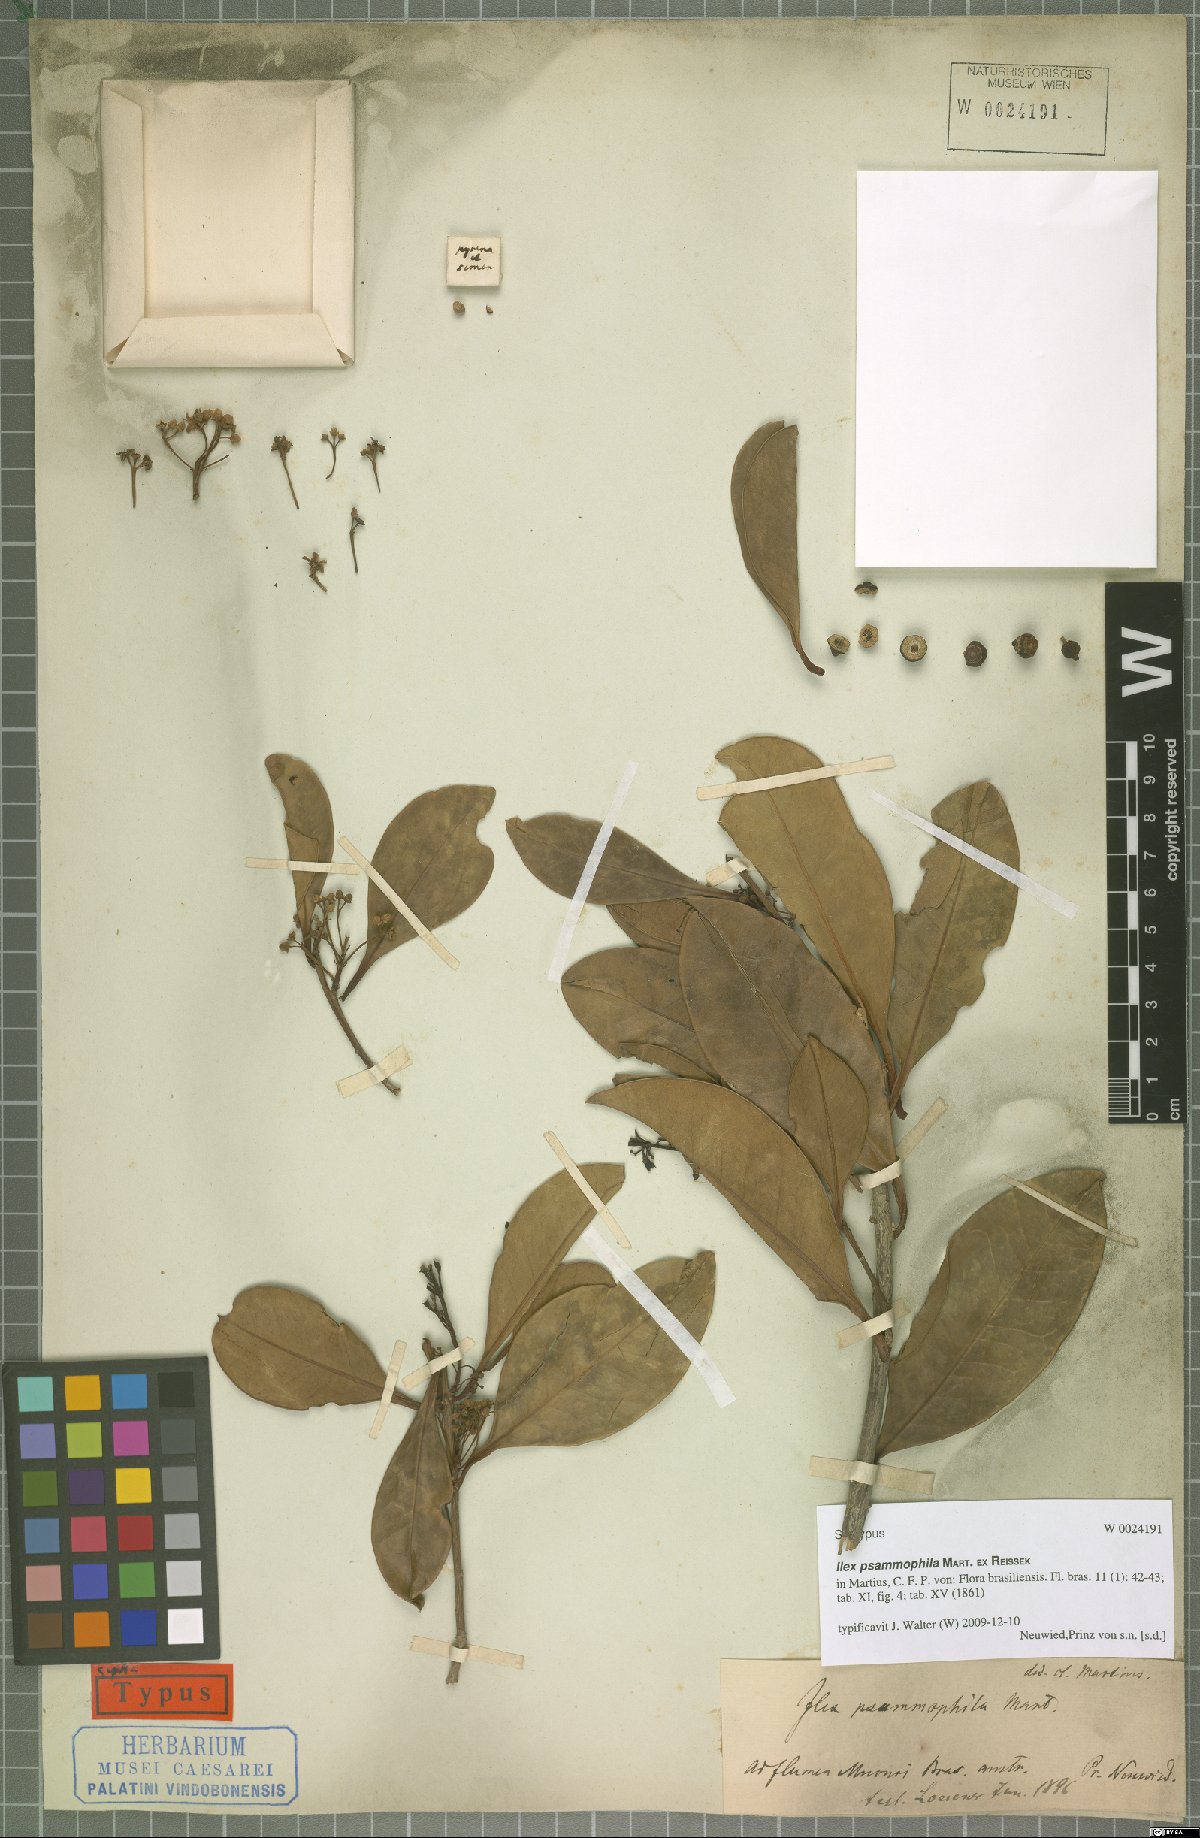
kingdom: Plantae
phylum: Tracheophyta
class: Magnoliopsida
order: Aquifoliales
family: Aquifoliaceae
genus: Ilex
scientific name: Ilex psammophila
